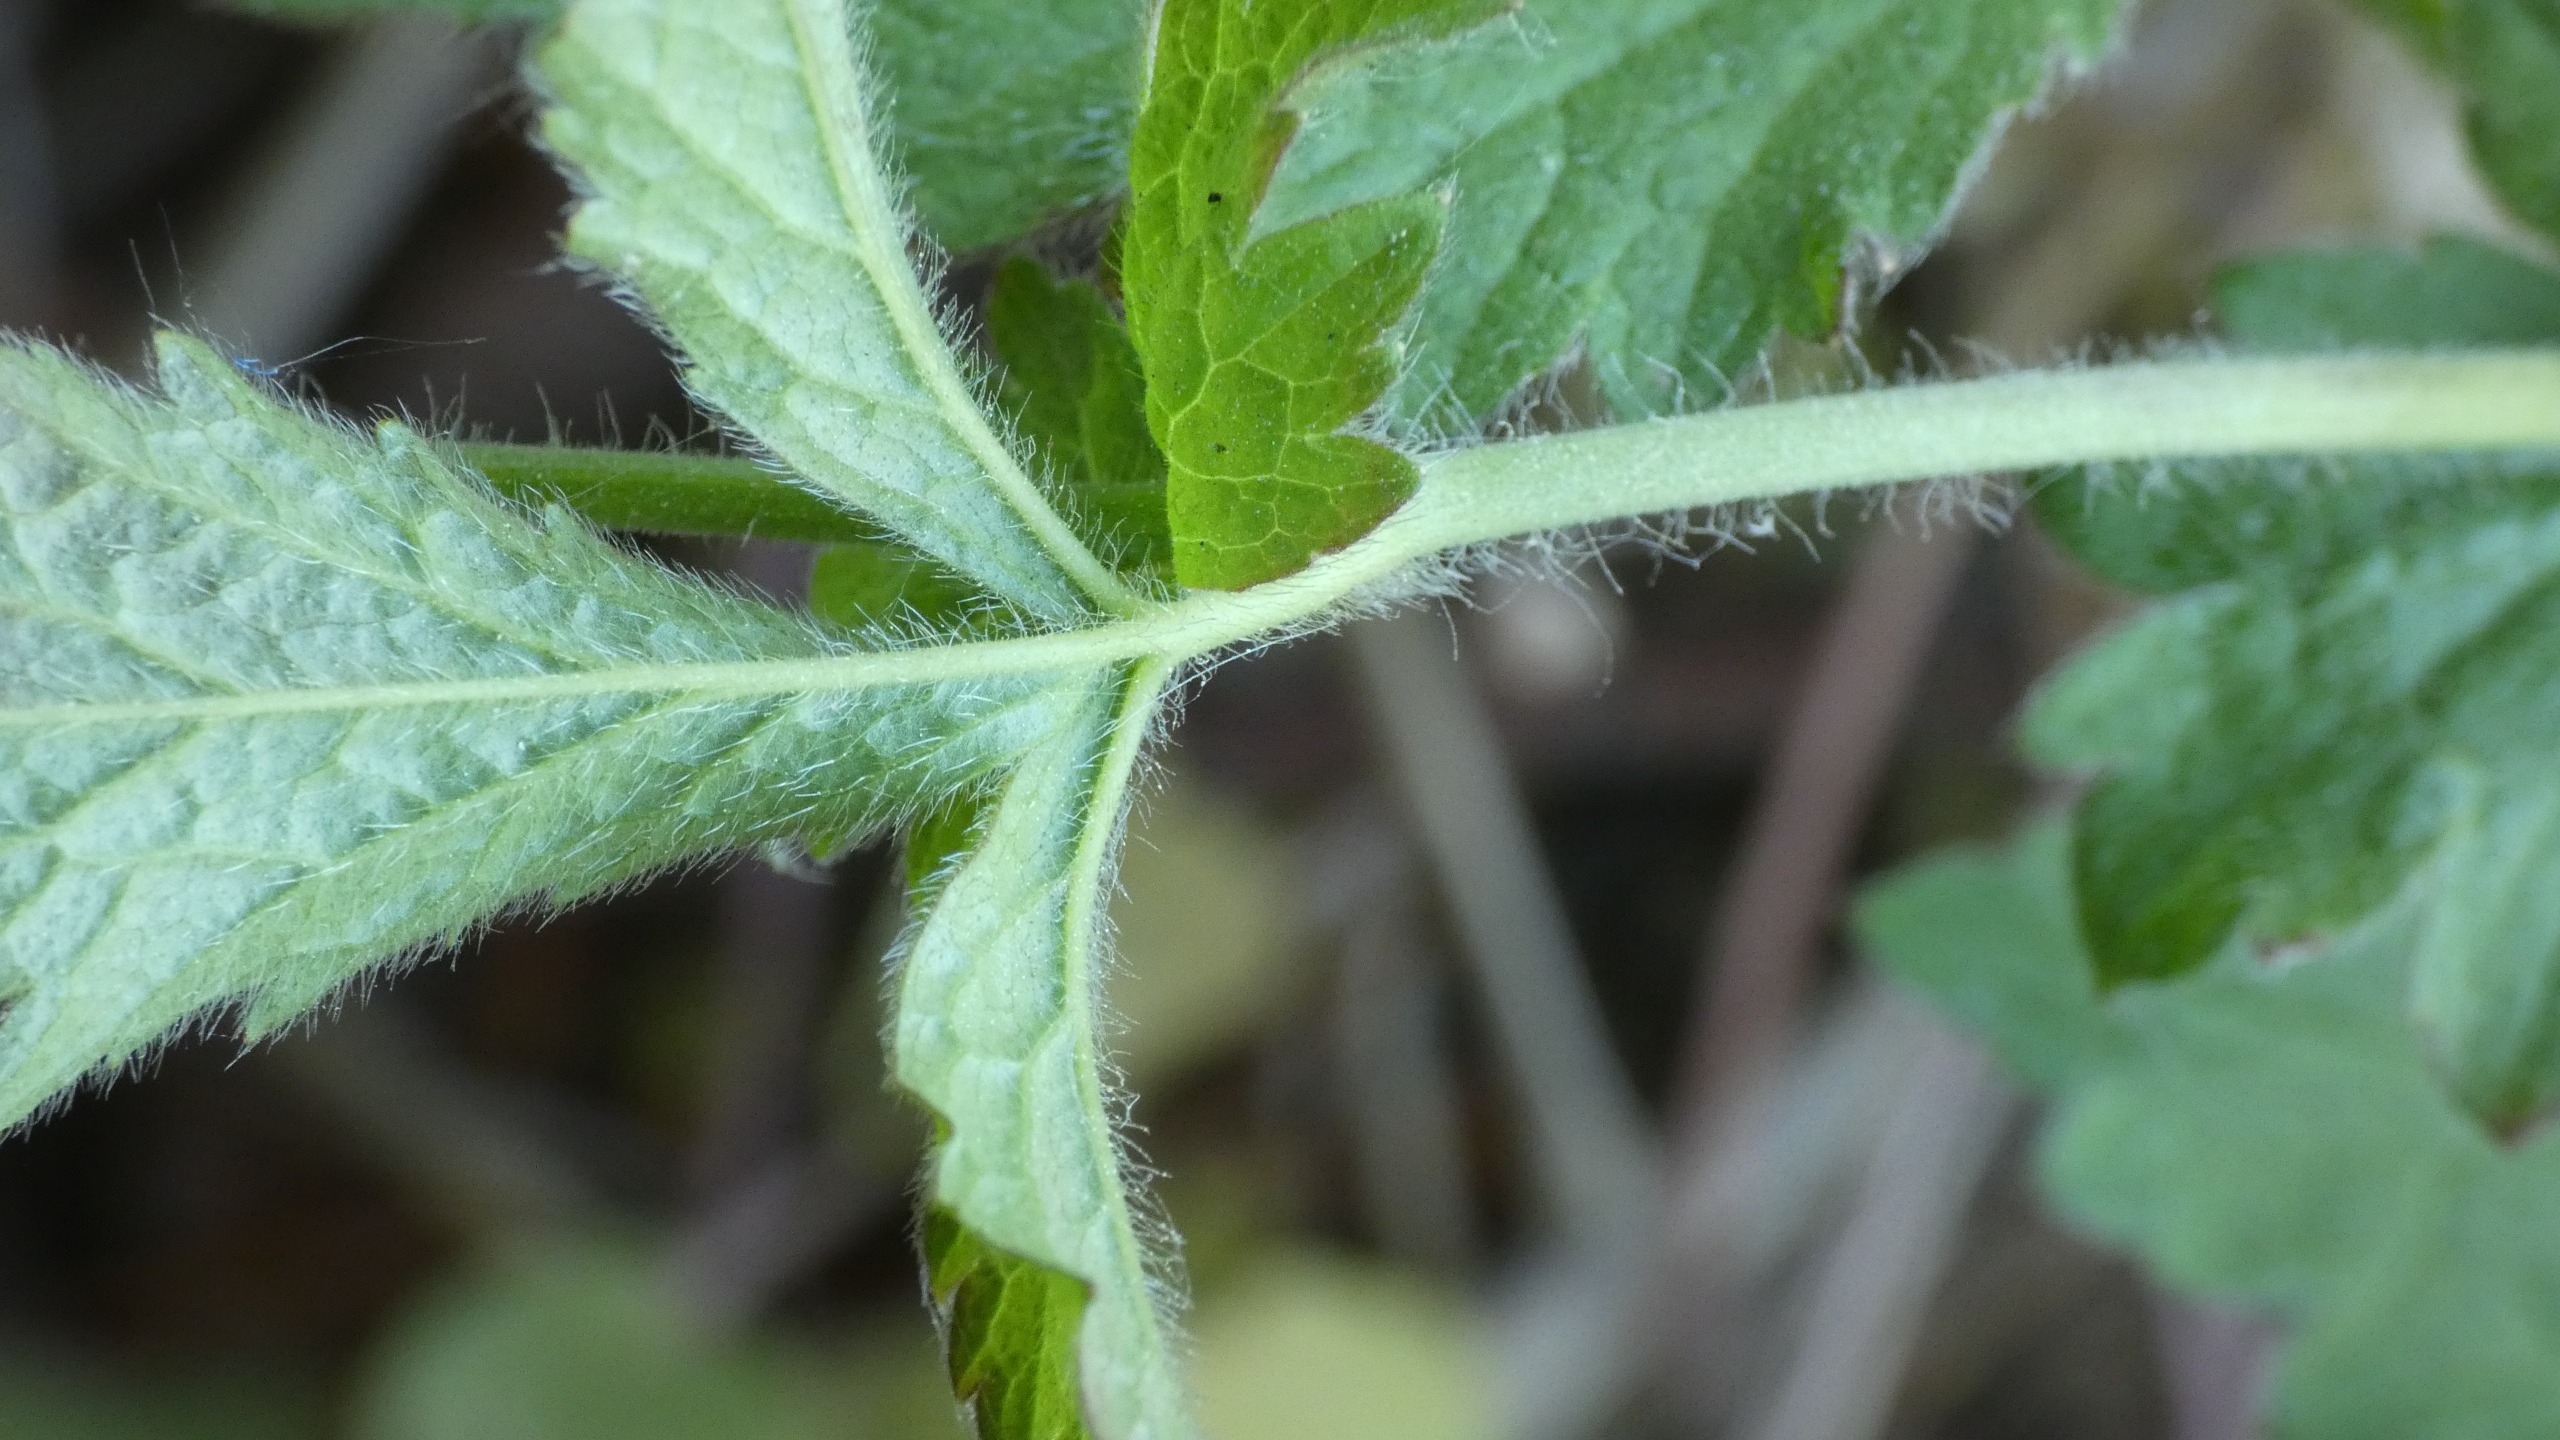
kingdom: Plantae
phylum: Tracheophyta
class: Magnoliopsida
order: Rosales
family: Rosaceae
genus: Geum
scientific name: Geum urbanum
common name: Feber-nellikerod
